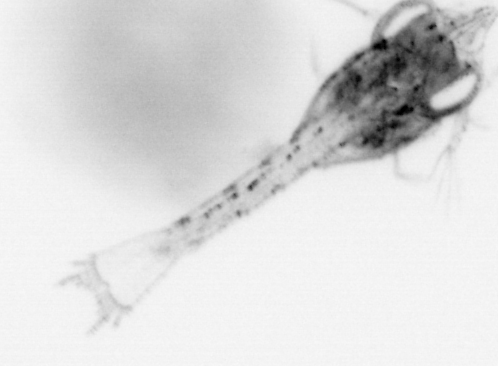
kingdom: Animalia
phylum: Arthropoda
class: Malacostraca
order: Decapoda
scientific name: Decapoda
